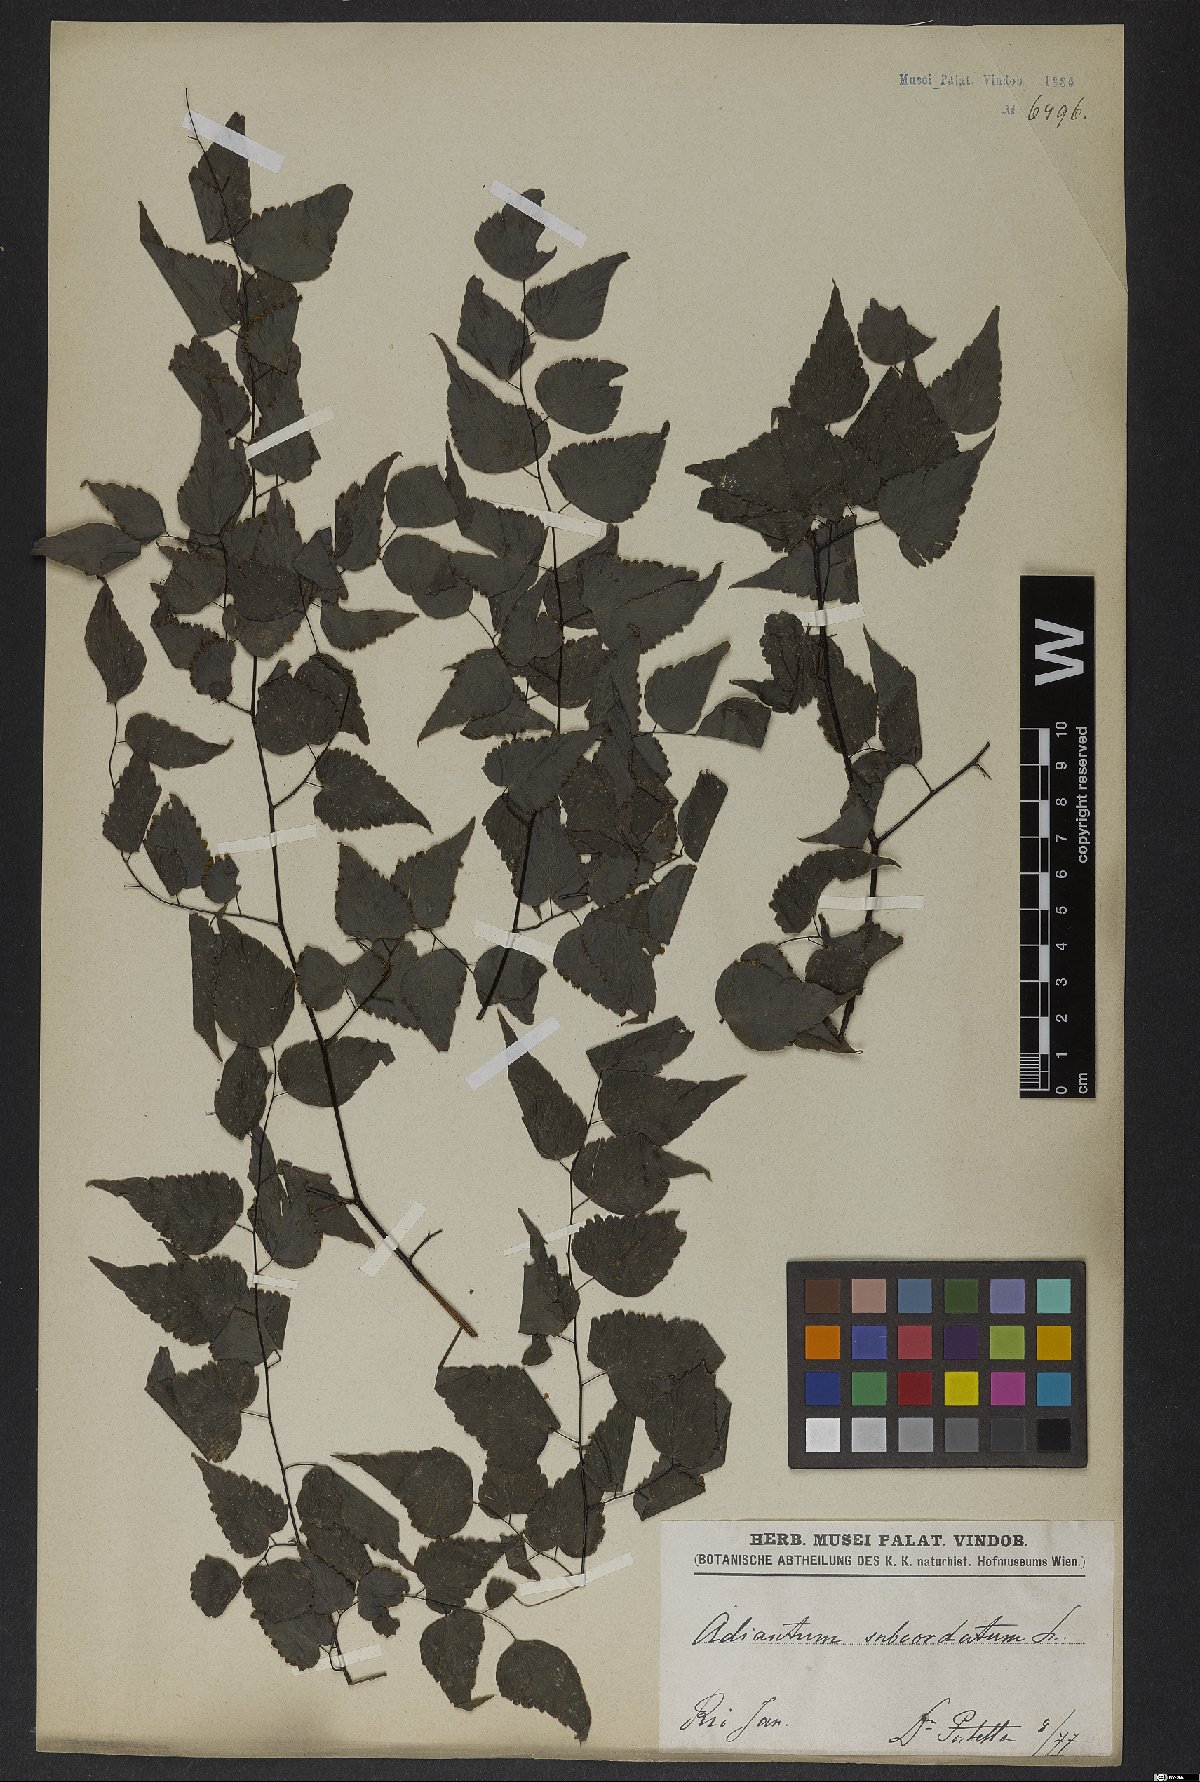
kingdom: Plantae
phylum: Tracheophyta
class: Polypodiopsida
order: Polypodiales
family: Pteridaceae
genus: Adiantum
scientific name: Adiantum subcordatum
